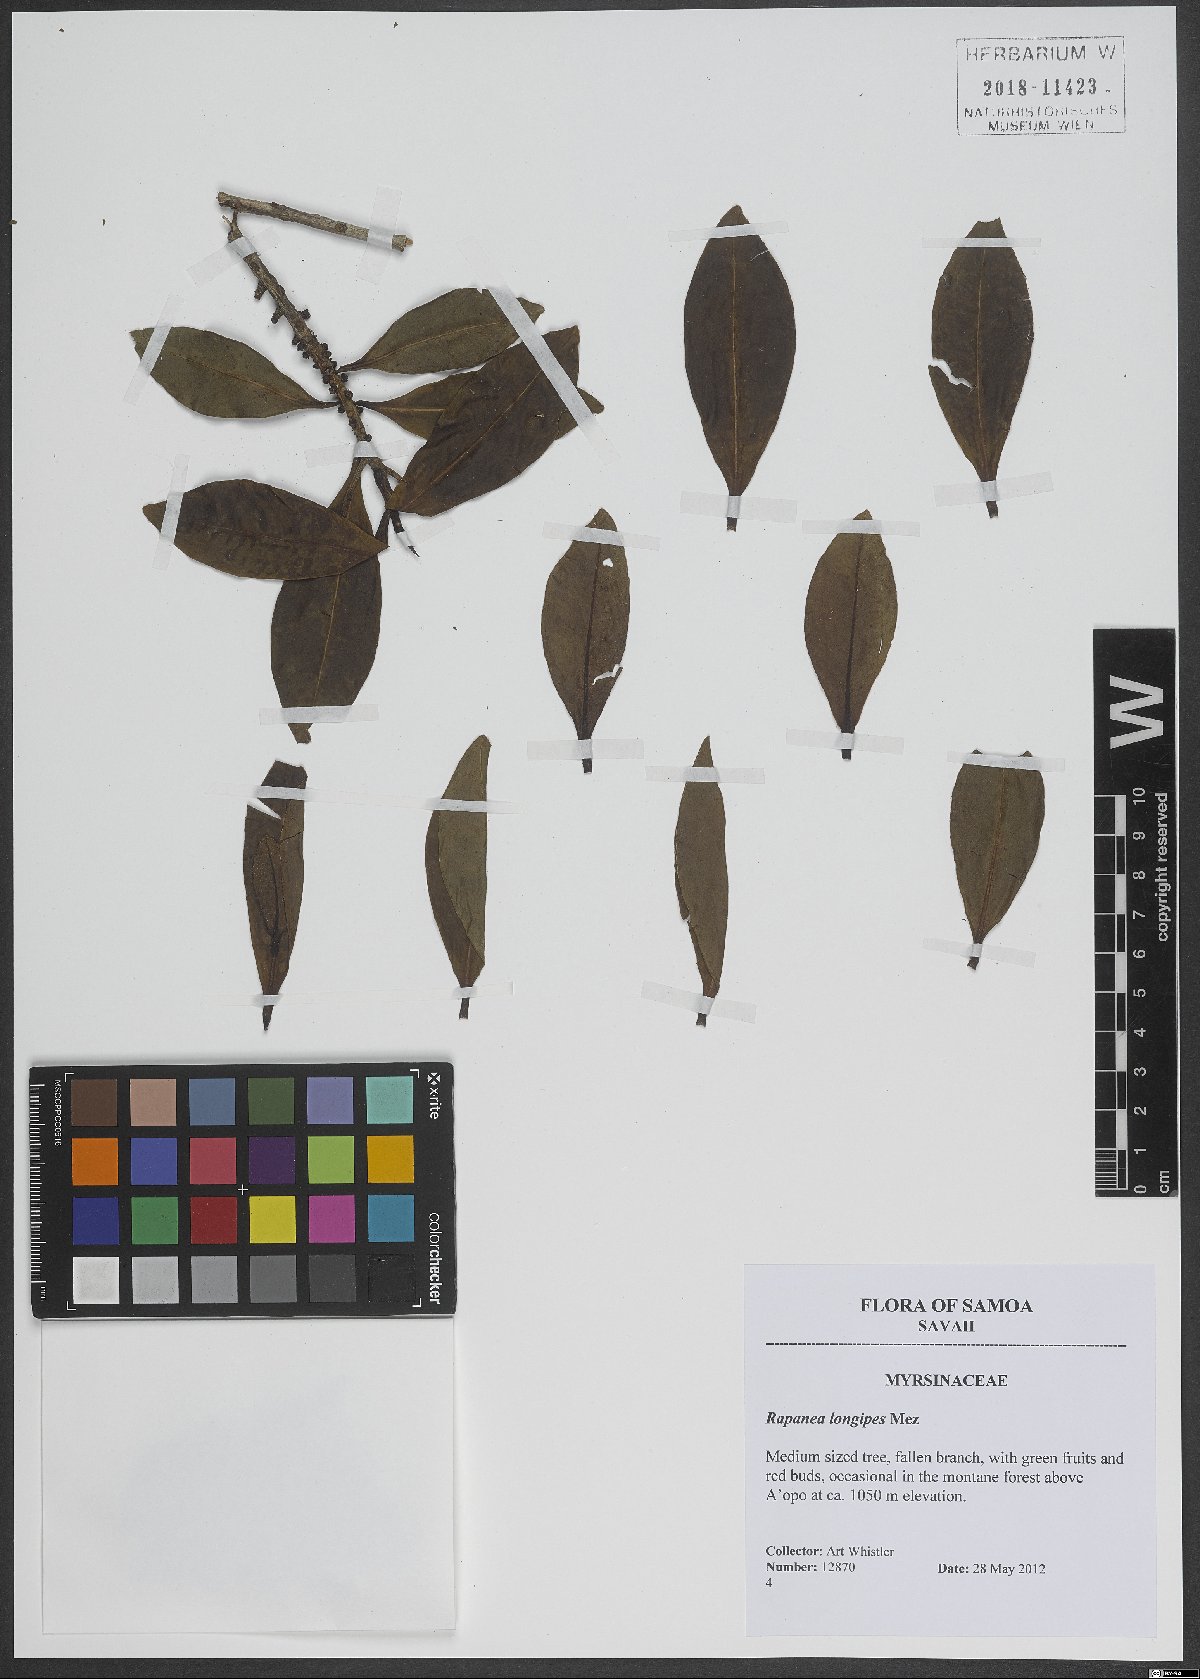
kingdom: Plantae
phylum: Tracheophyta
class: Magnoliopsida
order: Ericales
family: Primulaceae
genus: Myrsine
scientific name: Myrsine longipes
